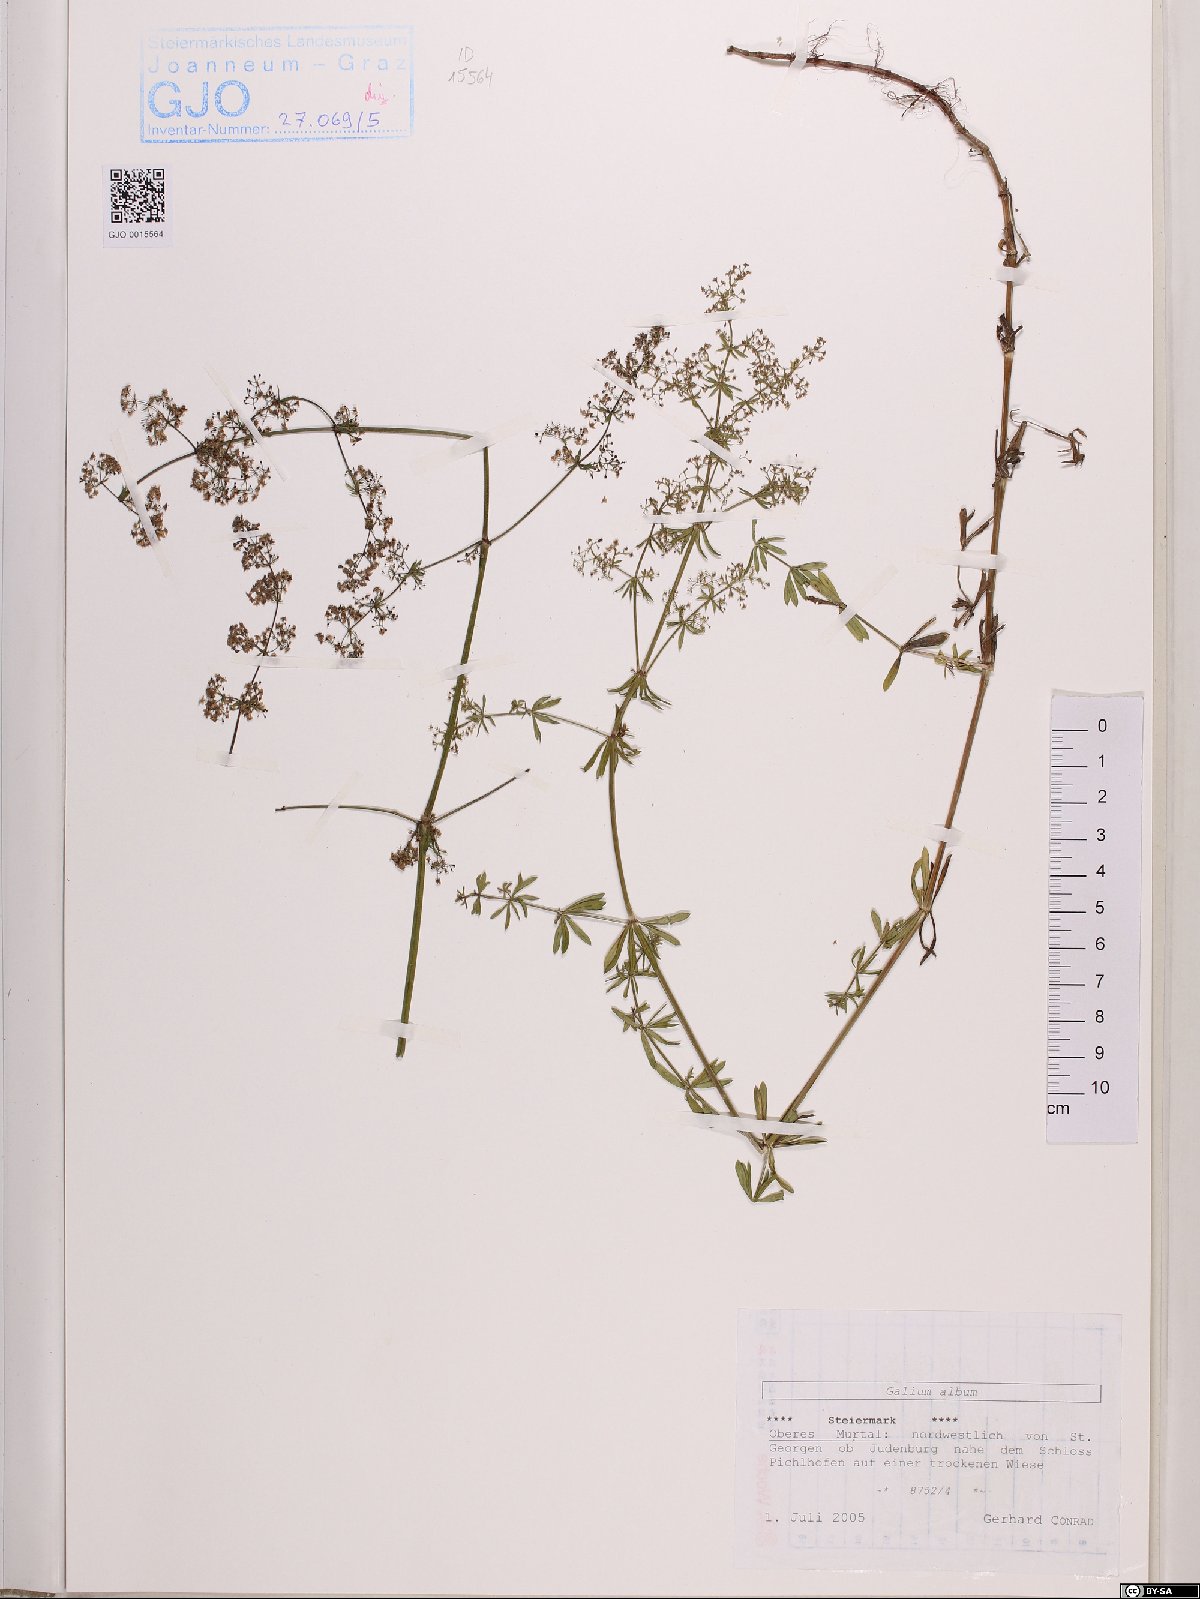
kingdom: Plantae
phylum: Tracheophyta
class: Magnoliopsida
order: Gentianales
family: Rubiaceae
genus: Galium
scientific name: Galium album
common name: White bedstraw
